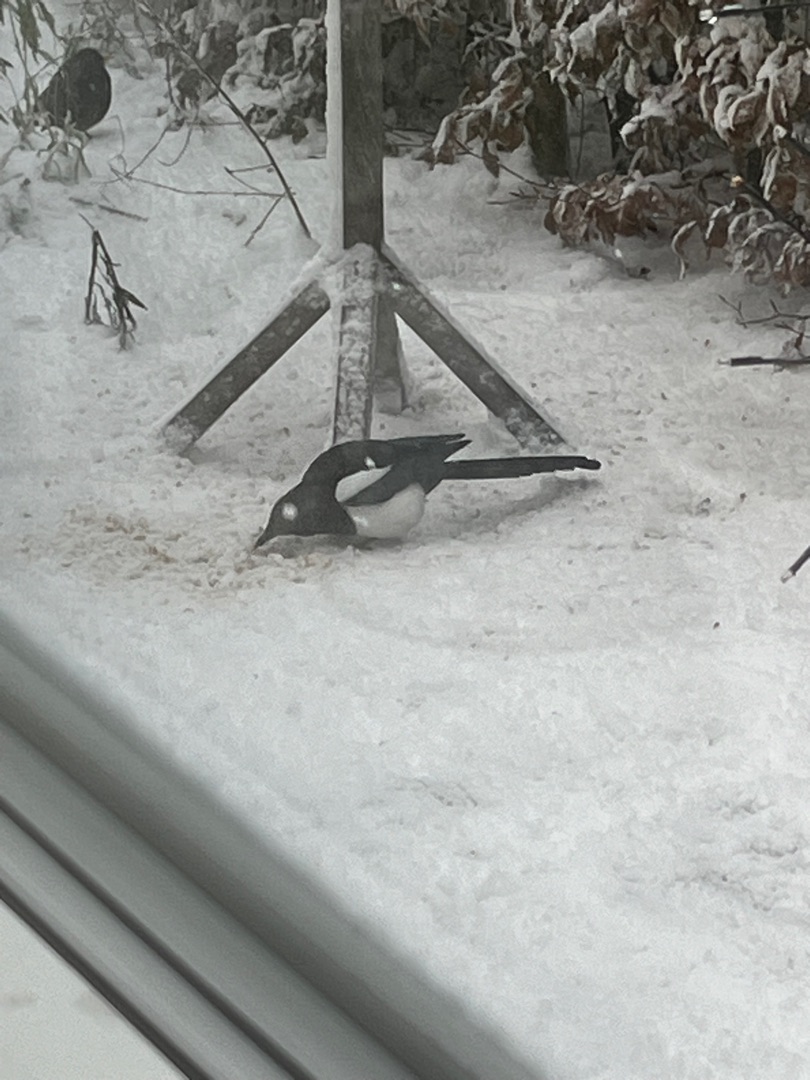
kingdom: Animalia
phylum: Chordata
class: Aves
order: Passeriformes
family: Corvidae
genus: Pica
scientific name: Pica pica
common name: Husskade
